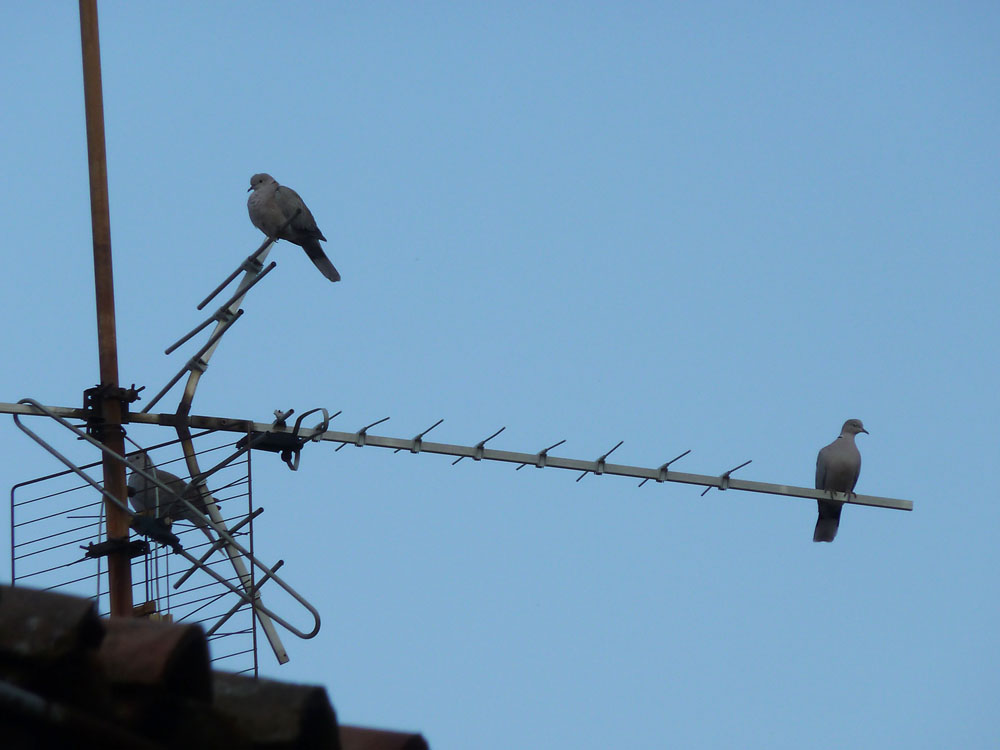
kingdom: Animalia
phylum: Chordata
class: Aves
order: Columbiformes
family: Columbidae
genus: Streptopelia
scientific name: Streptopelia decaocto
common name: Eurasian collared dove
